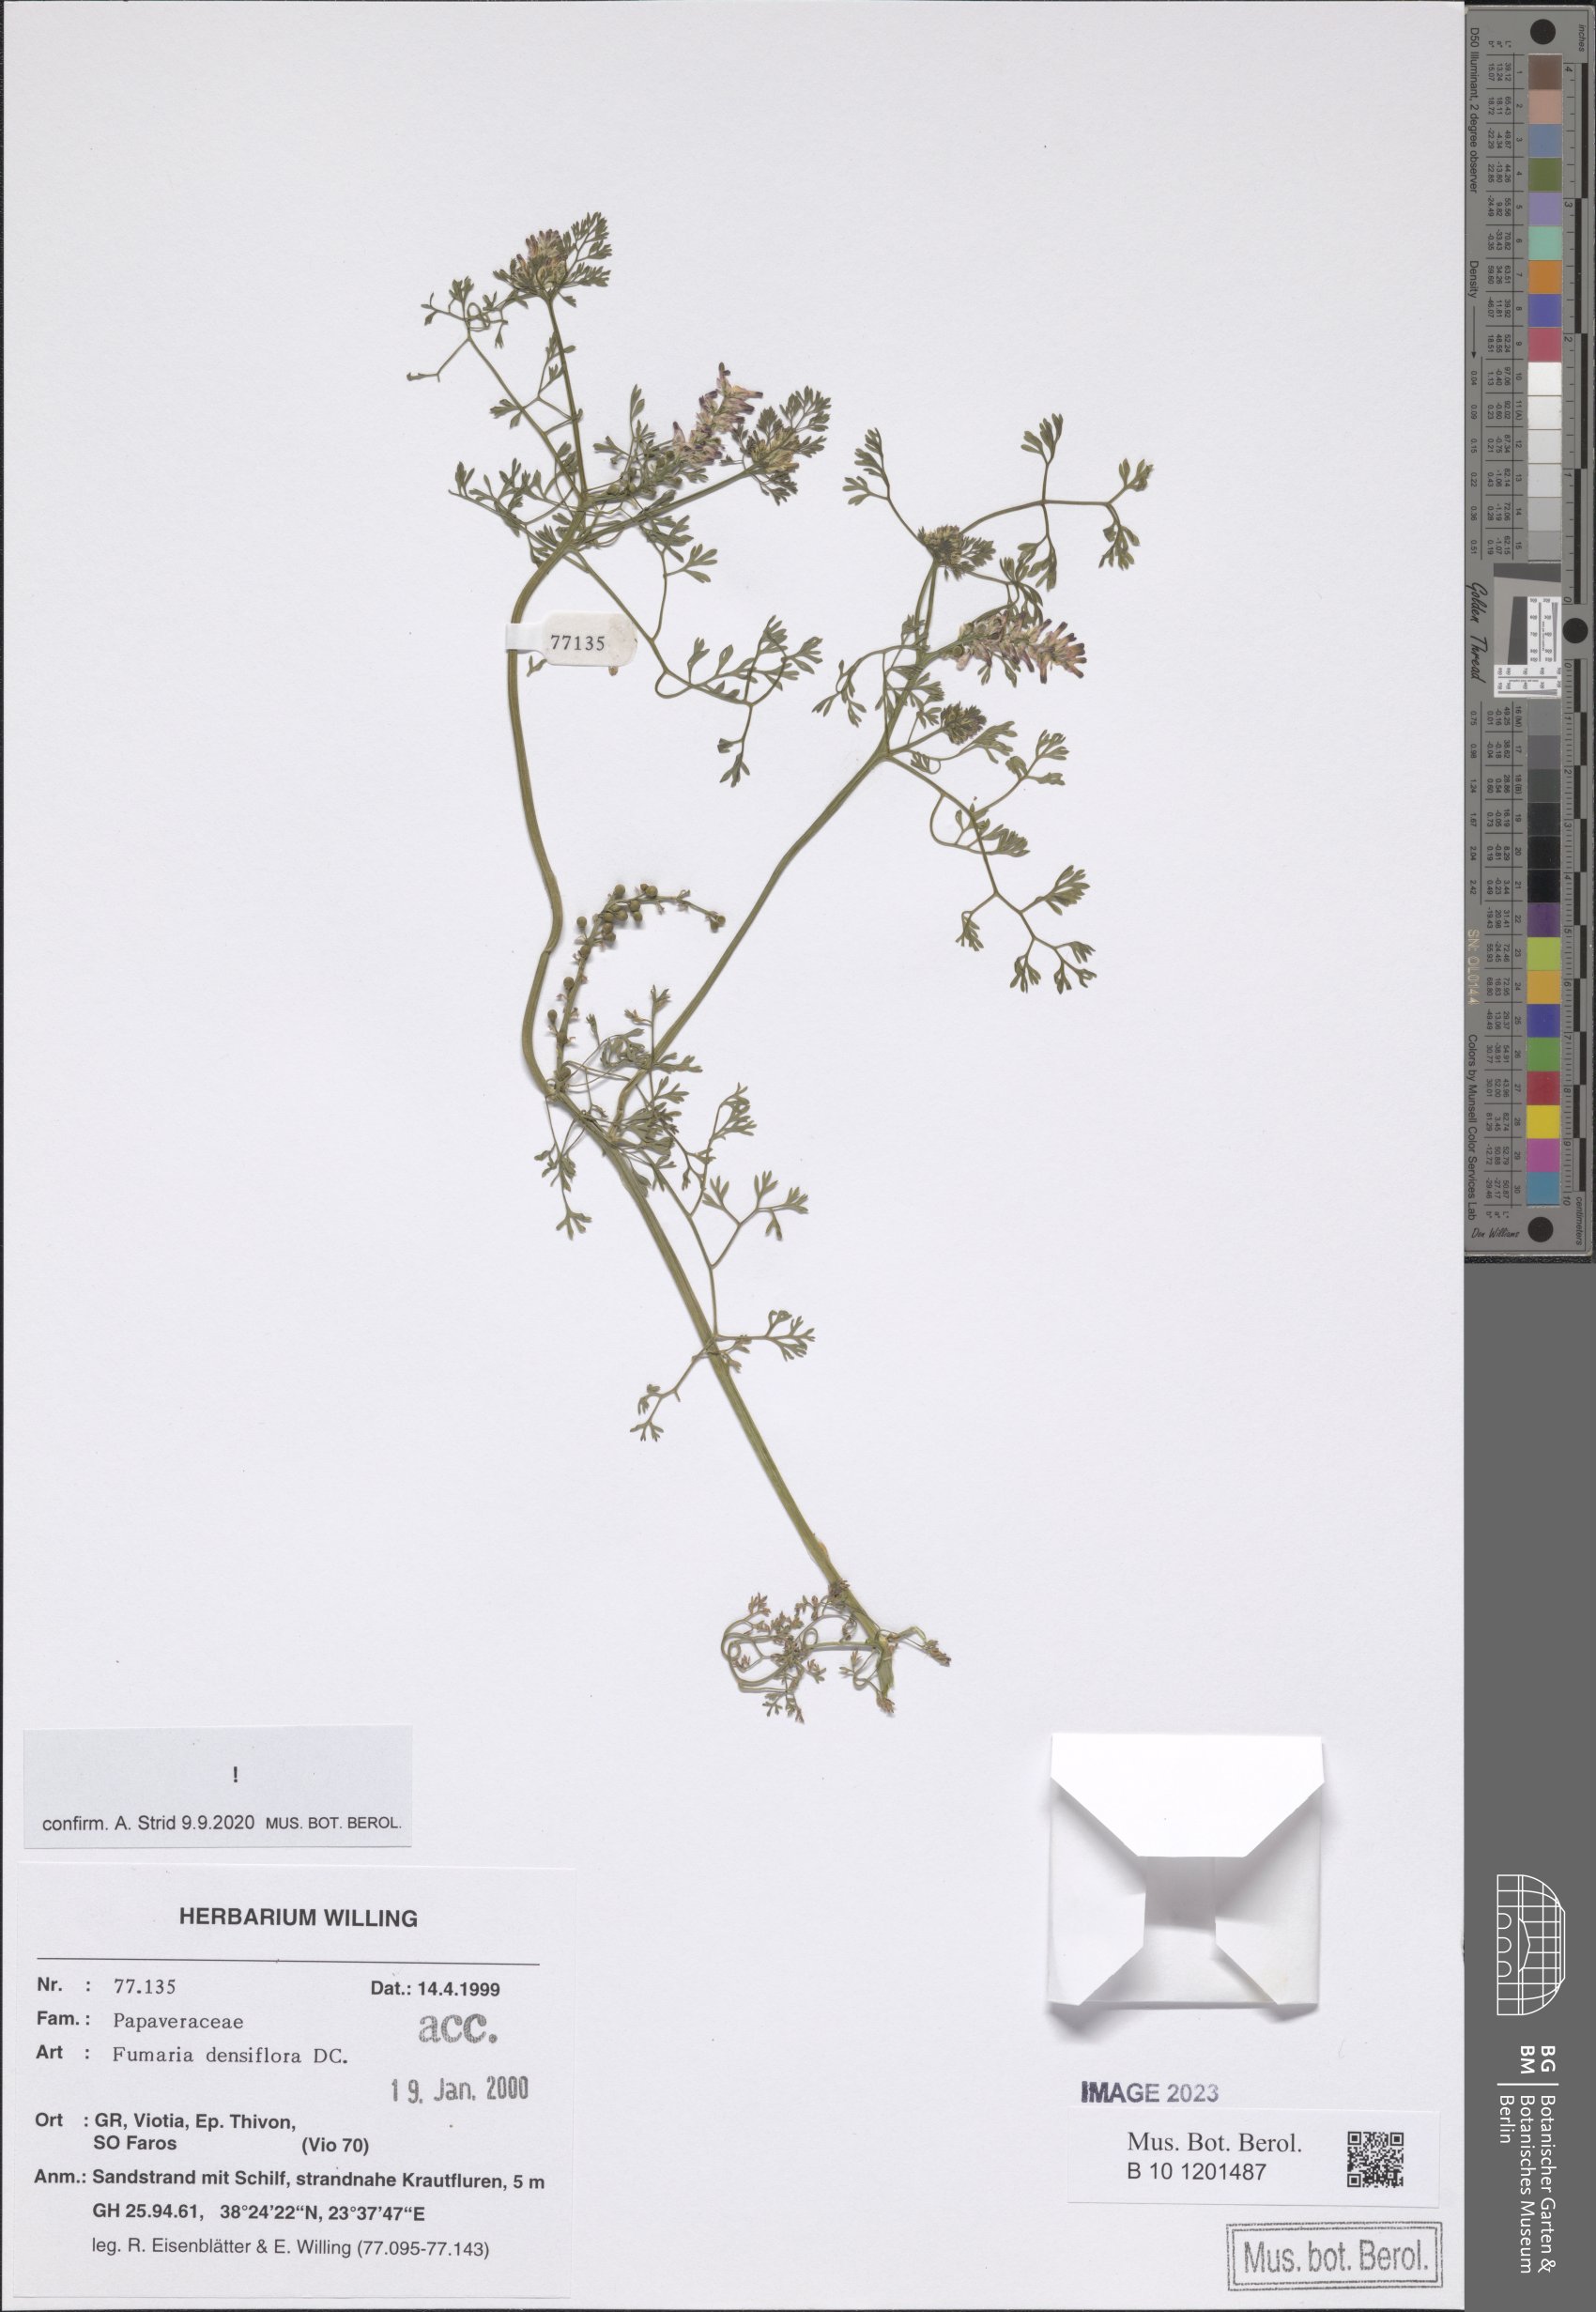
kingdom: Plantae
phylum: Tracheophyta
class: Magnoliopsida
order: Ranunculales
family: Papaveraceae
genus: Fumaria
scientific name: Fumaria densiflora
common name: Dense-flowered fumitory
